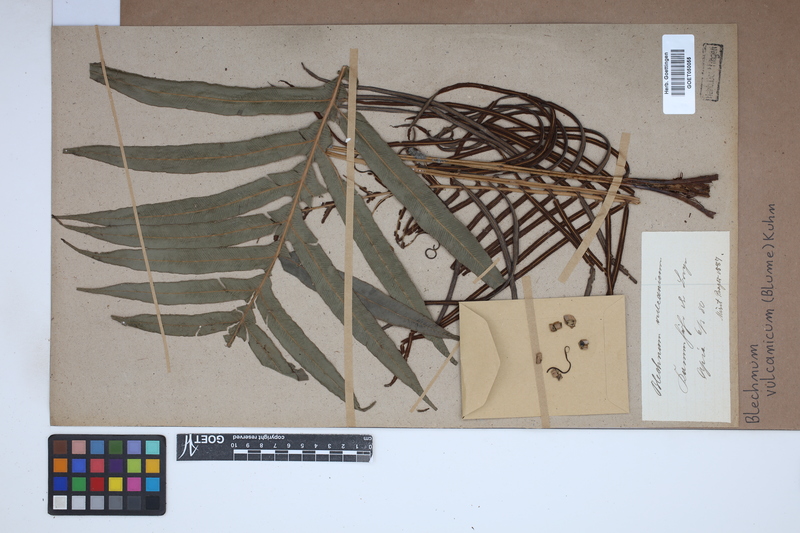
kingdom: Plantae
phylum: Tracheophyta
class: Polypodiopsida
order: Polypodiales
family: Blechnaceae
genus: Cranfillia
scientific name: Cranfillia vulcanica
